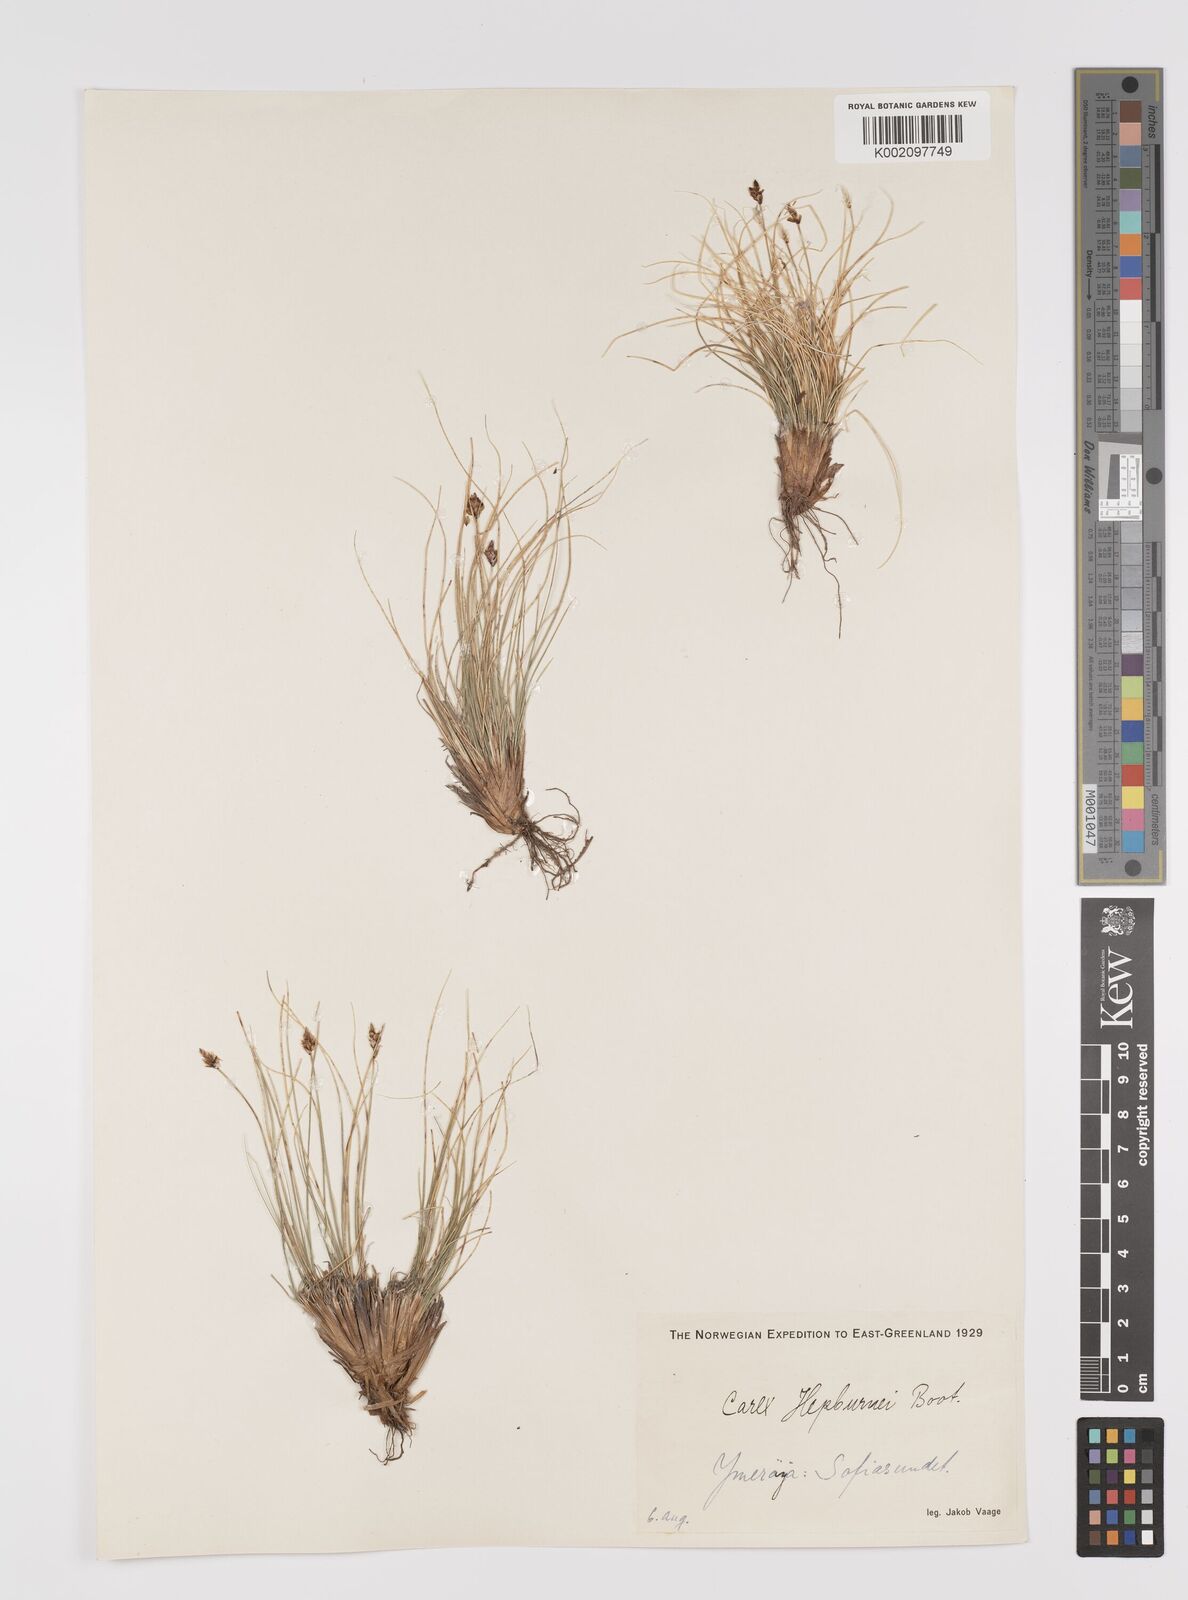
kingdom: Plantae
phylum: Tracheophyta
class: Liliopsida
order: Poales
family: Cyperaceae
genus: Carex
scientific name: Carex nardina
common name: Nard sedge
